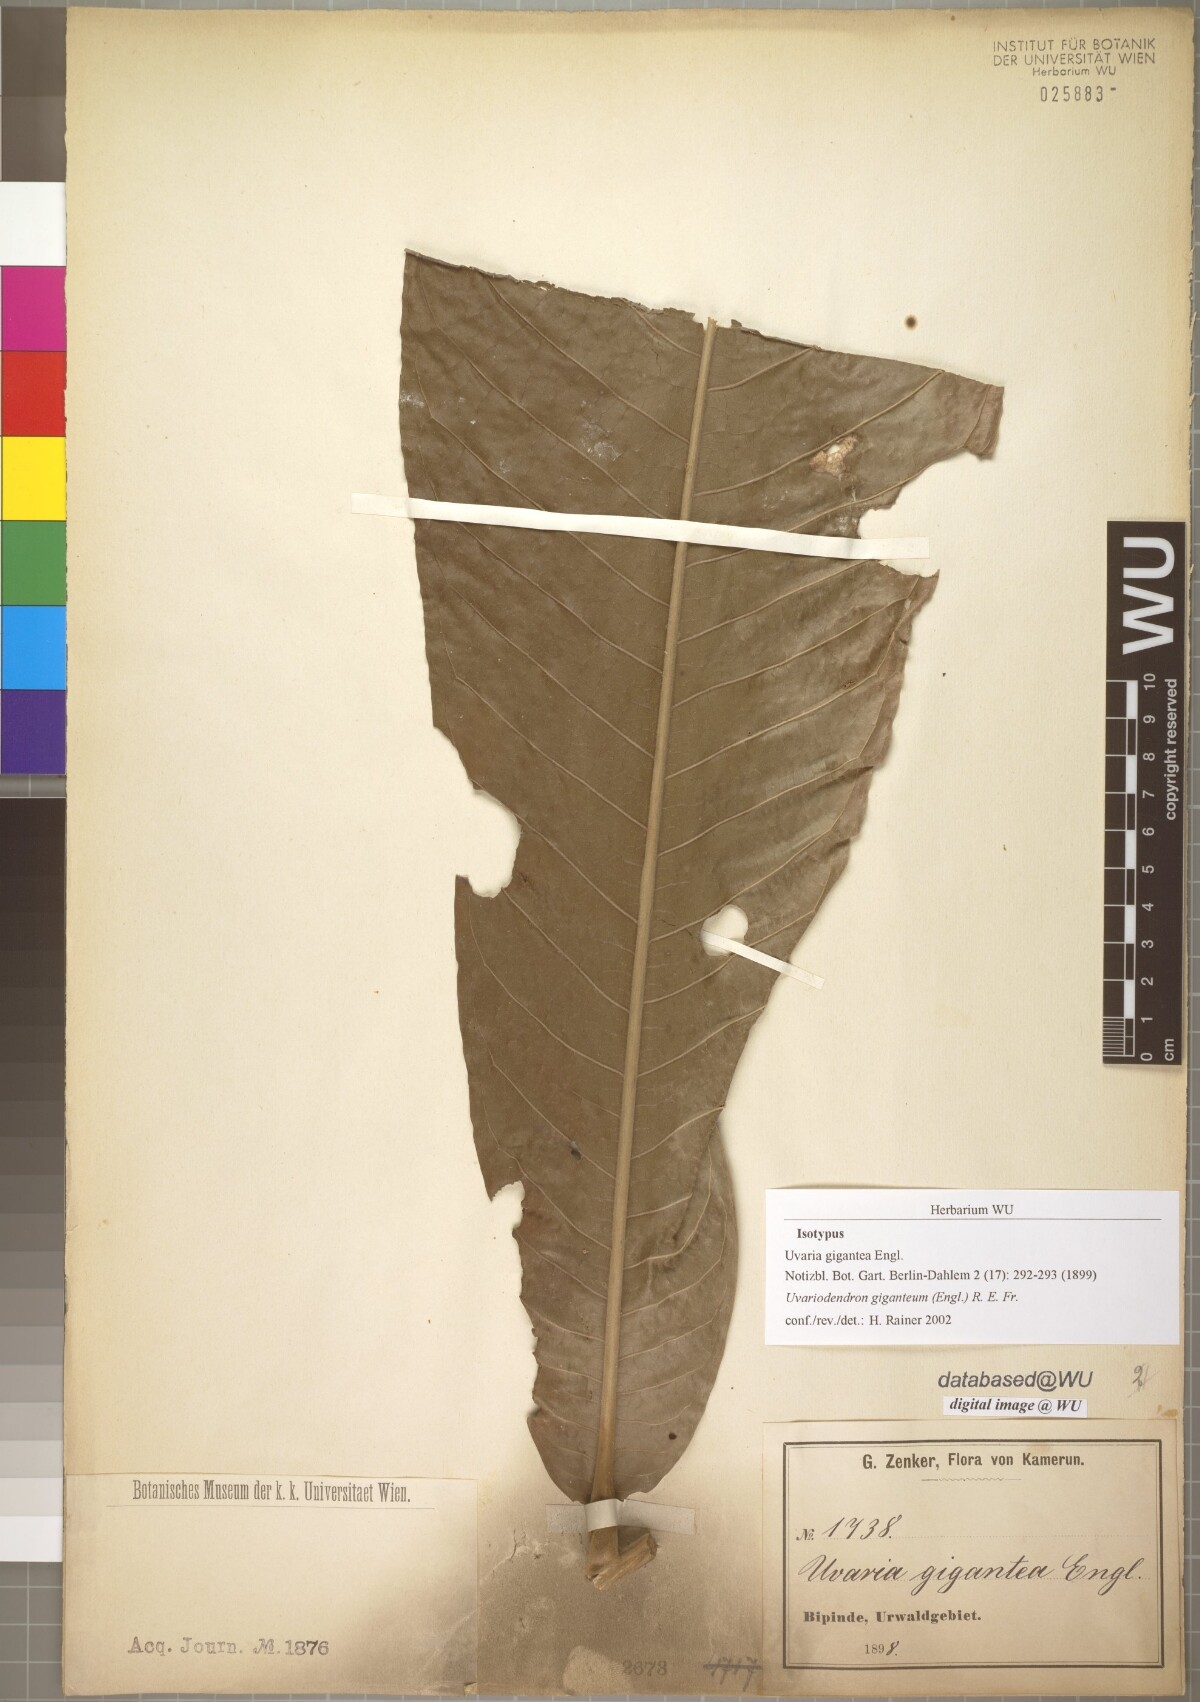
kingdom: Plantae
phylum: Tracheophyta
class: Magnoliopsida
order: Magnoliales
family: Annonaceae
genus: Uvariodendron
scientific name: Uvariodendron giganteum
